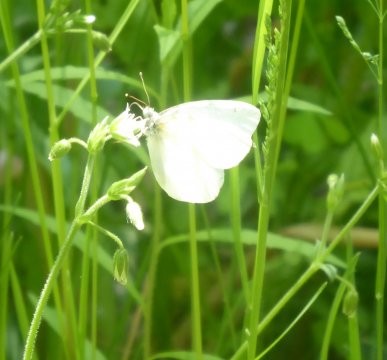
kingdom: Animalia
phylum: Arthropoda
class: Insecta
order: Lepidoptera
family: Pieridae
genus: Pieris
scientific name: Pieris
